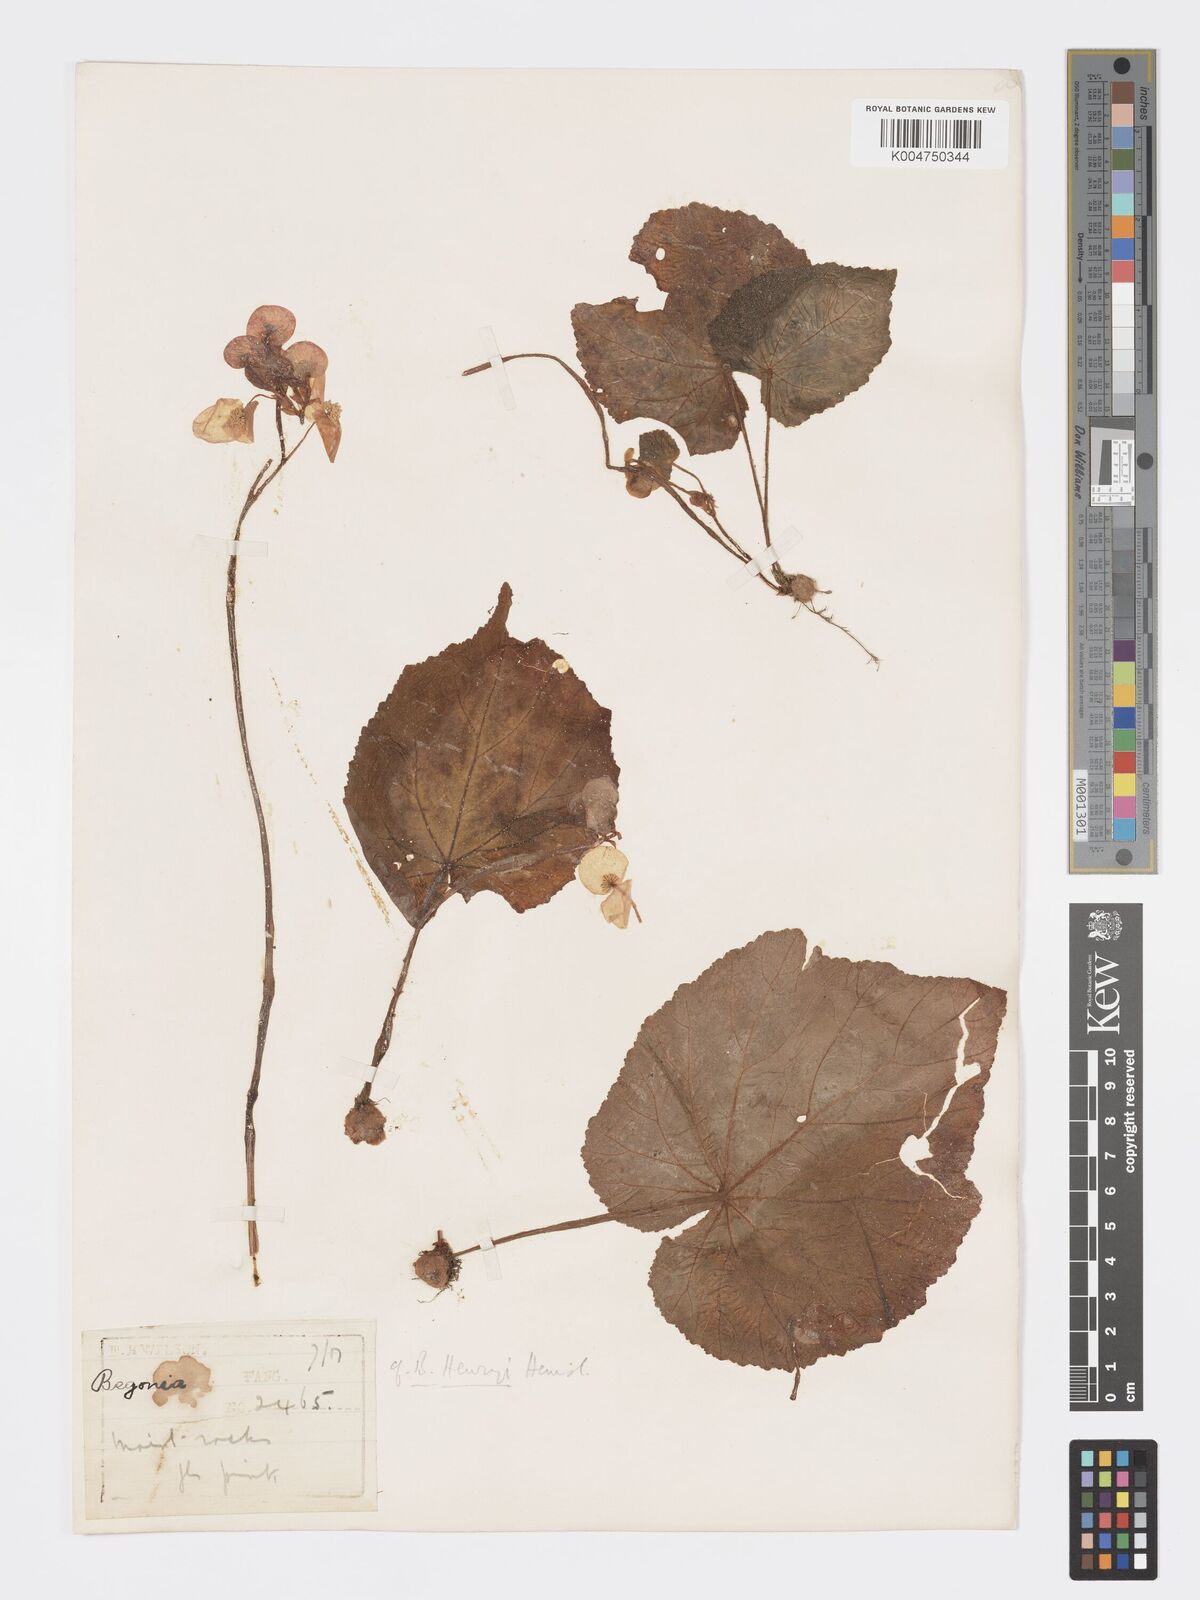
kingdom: Plantae
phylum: Tracheophyta
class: Magnoliopsida
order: Cucurbitales
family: Begoniaceae
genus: Begonia
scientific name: Begonia henryi
